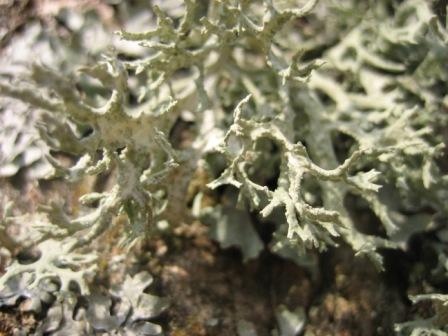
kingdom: Fungi
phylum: Ascomycota
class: Lecanoromycetes
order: Lecanorales
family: Parmeliaceae
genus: Evernia
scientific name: Evernia prunastri
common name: almindelig slåenlav
